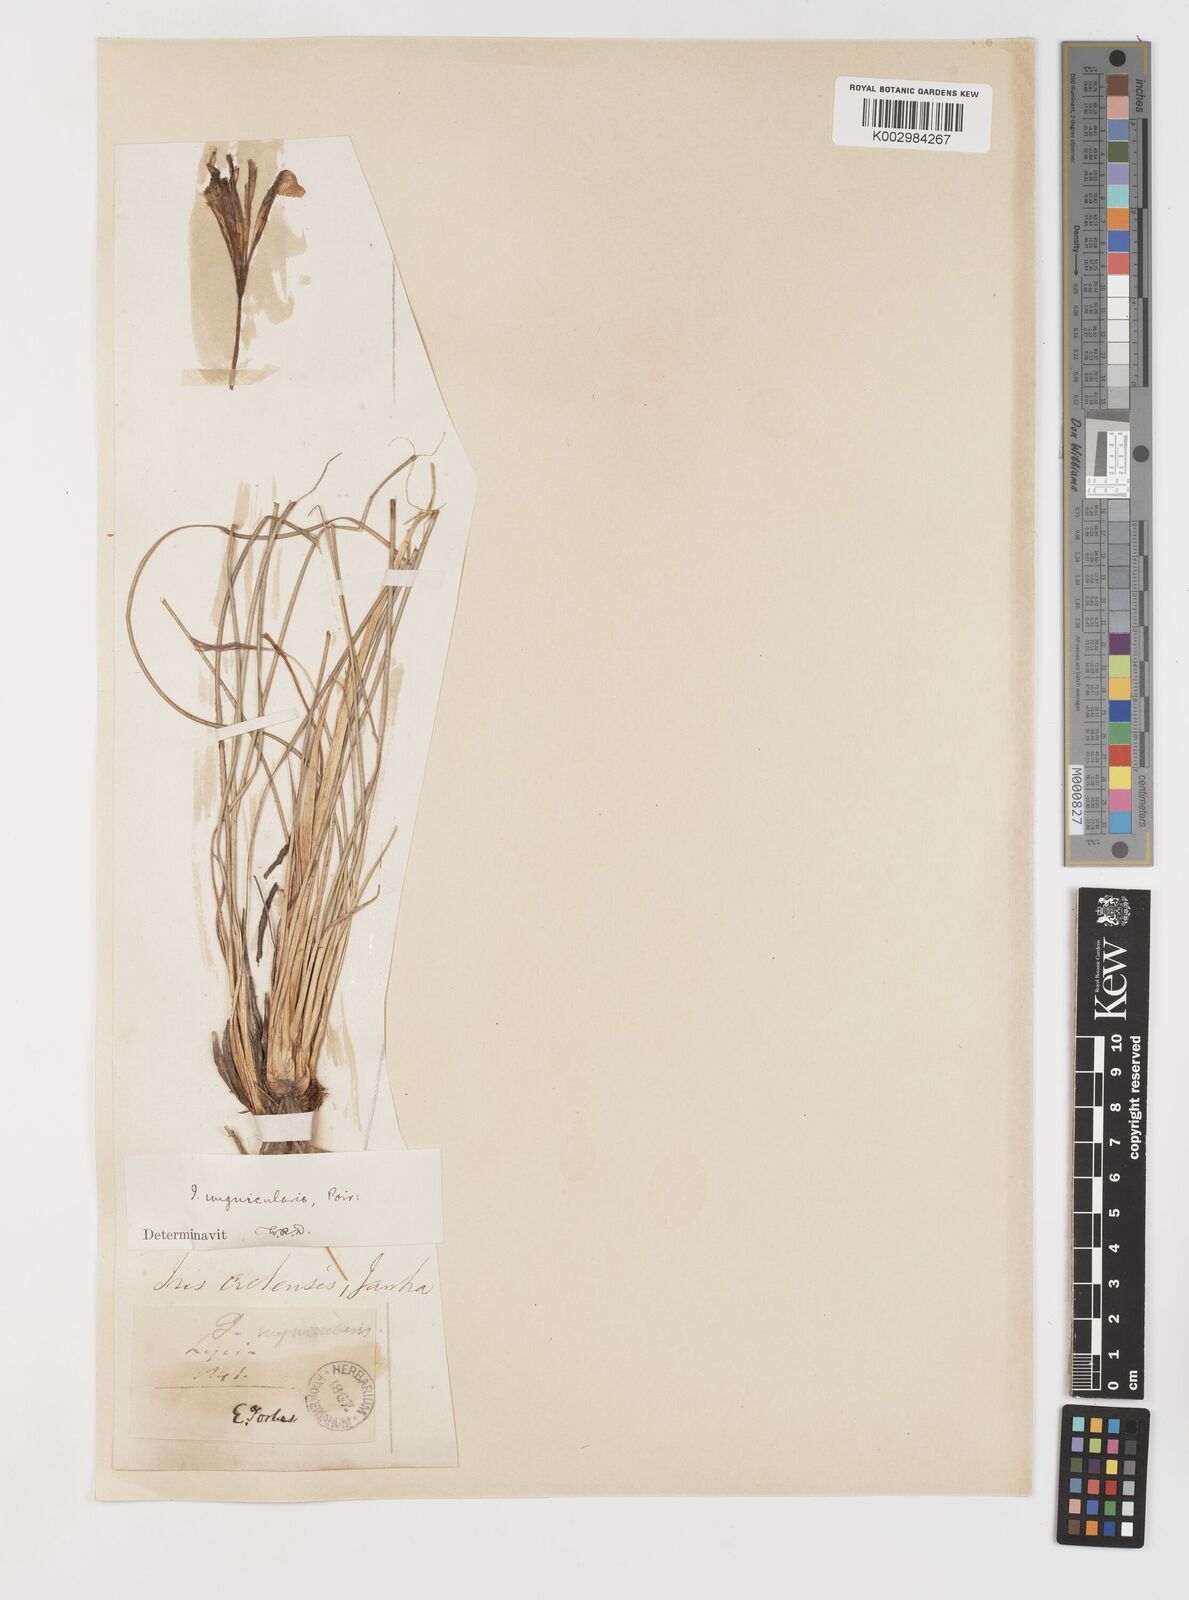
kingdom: Plantae
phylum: Tracheophyta
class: Liliopsida
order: Asparagales
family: Iridaceae
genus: Iris
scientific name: Iris unguicularis
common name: Algerian iris
